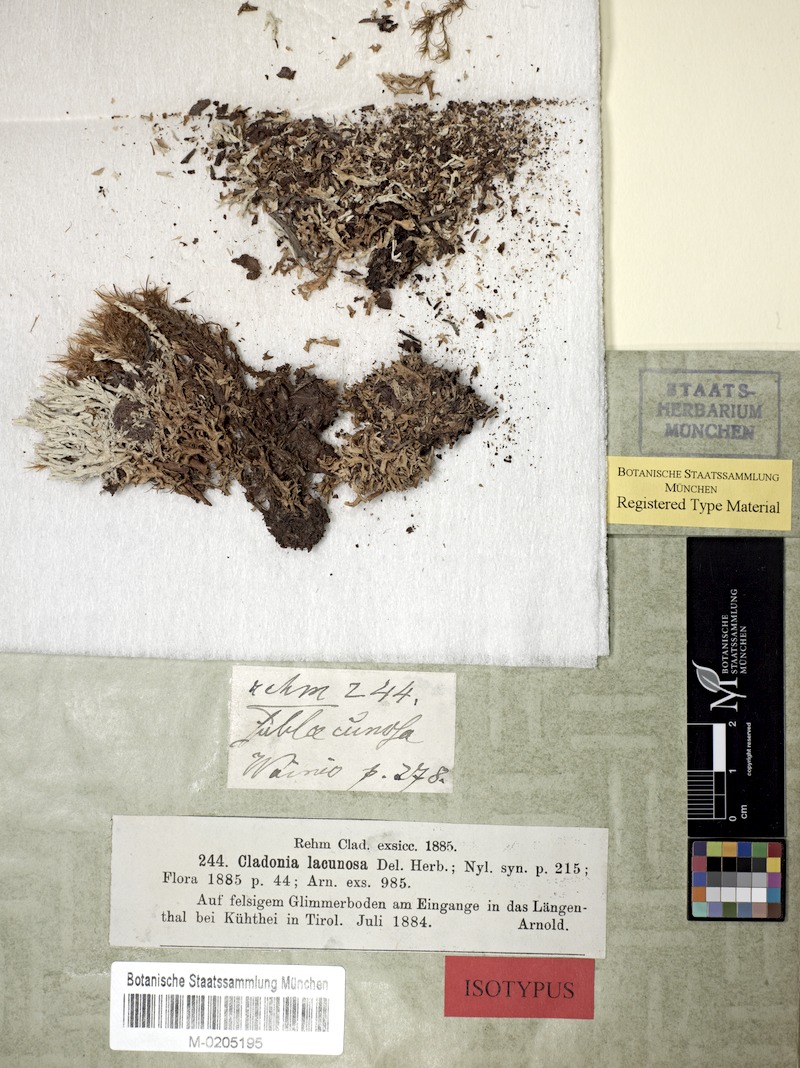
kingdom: Fungi
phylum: Ascomycota
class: Lecanoromycetes
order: Lecanorales
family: Cladoniaceae
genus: Cladonia
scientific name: Cladonia sublacunosa
